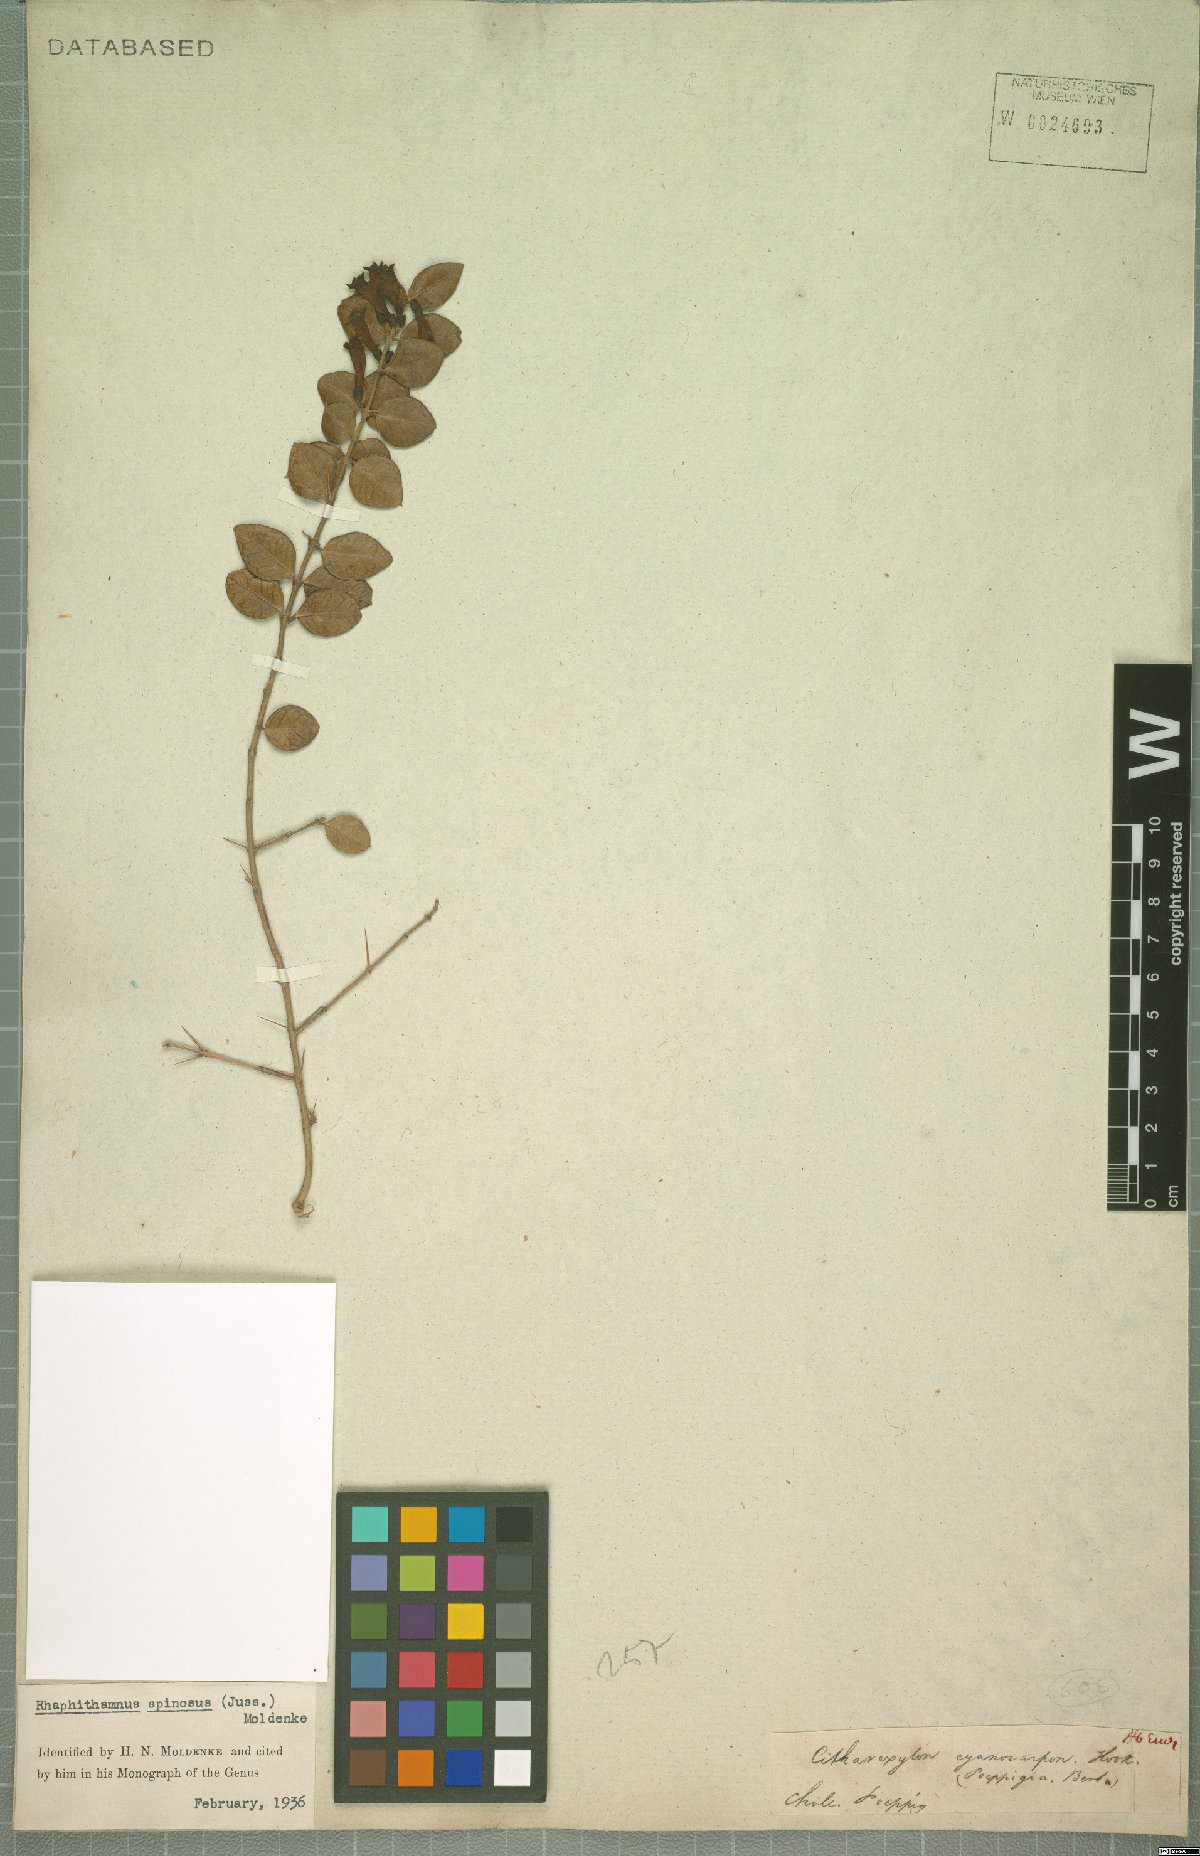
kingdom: Plantae
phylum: Tracheophyta
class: Magnoliopsida
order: Lamiales
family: Verbenaceae
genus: Rhaphithamnus
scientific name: Rhaphithamnus spinosus
